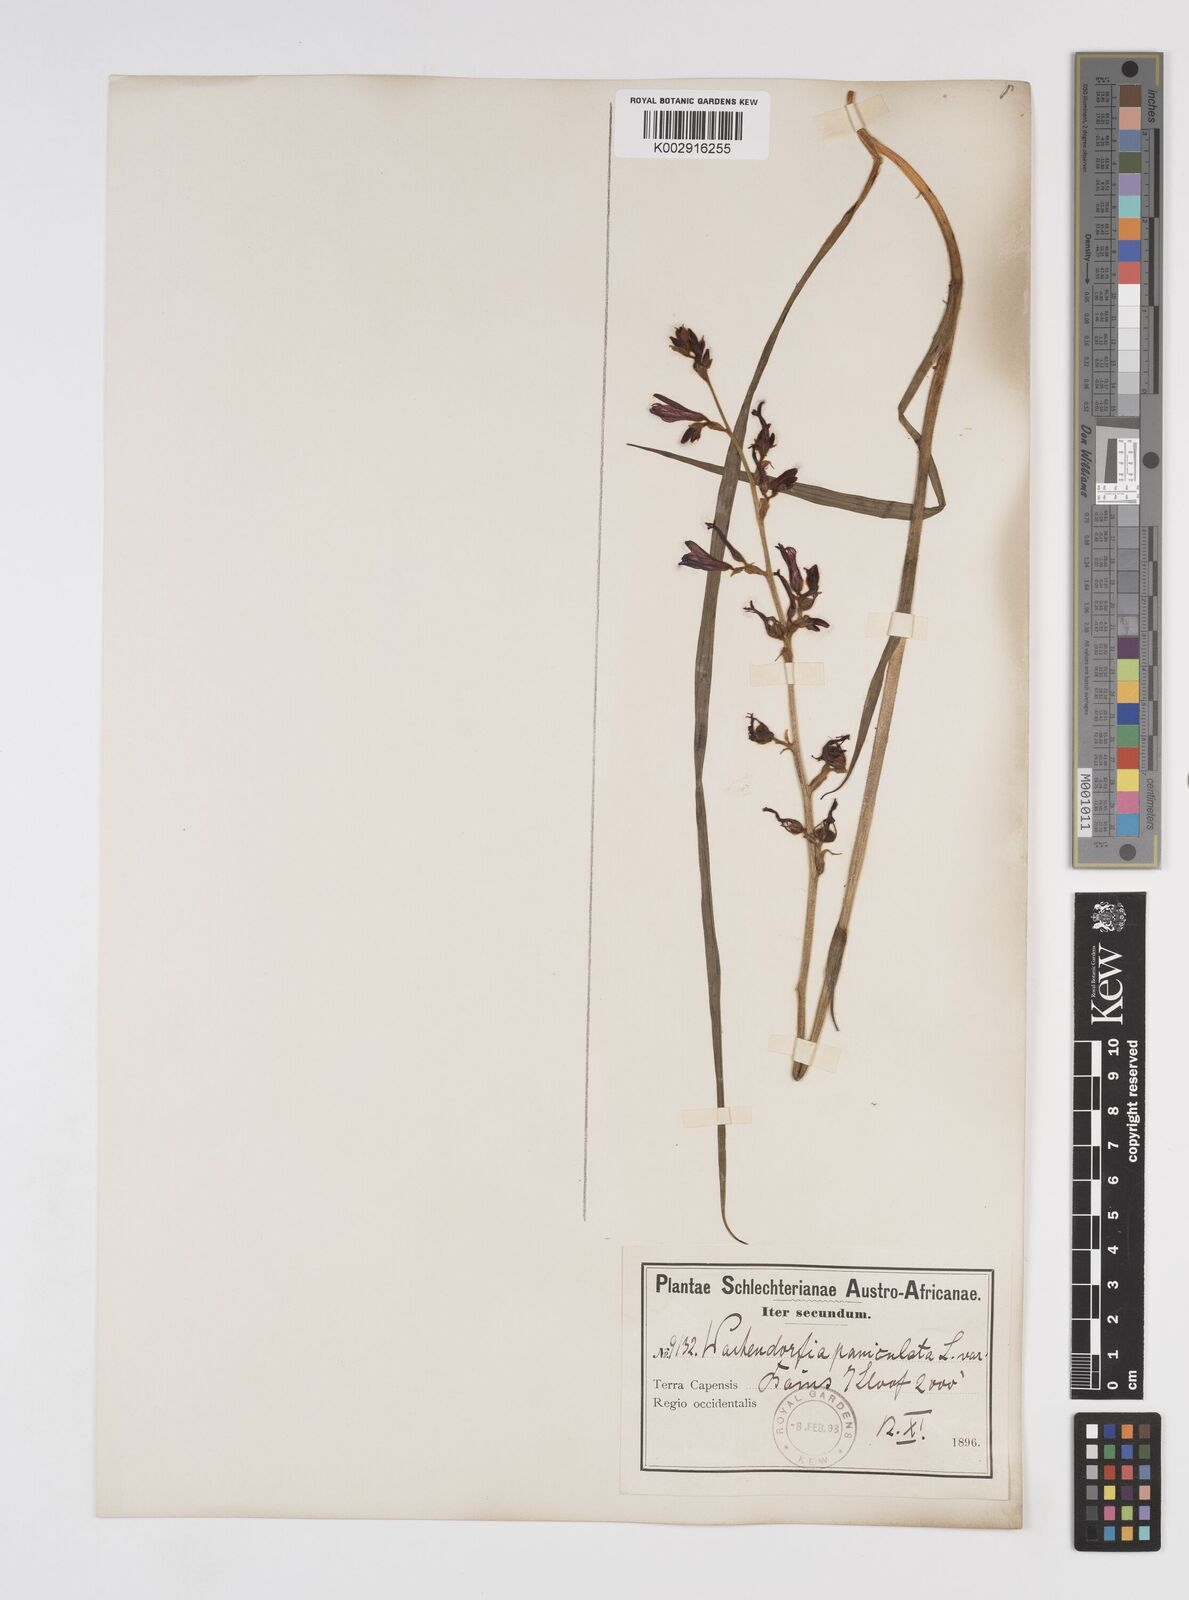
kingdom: Plantae
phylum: Tracheophyta
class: Liliopsida
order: Commelinales
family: Haemodoraceae
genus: Wachendorfia
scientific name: Wachendorfia paniculata
